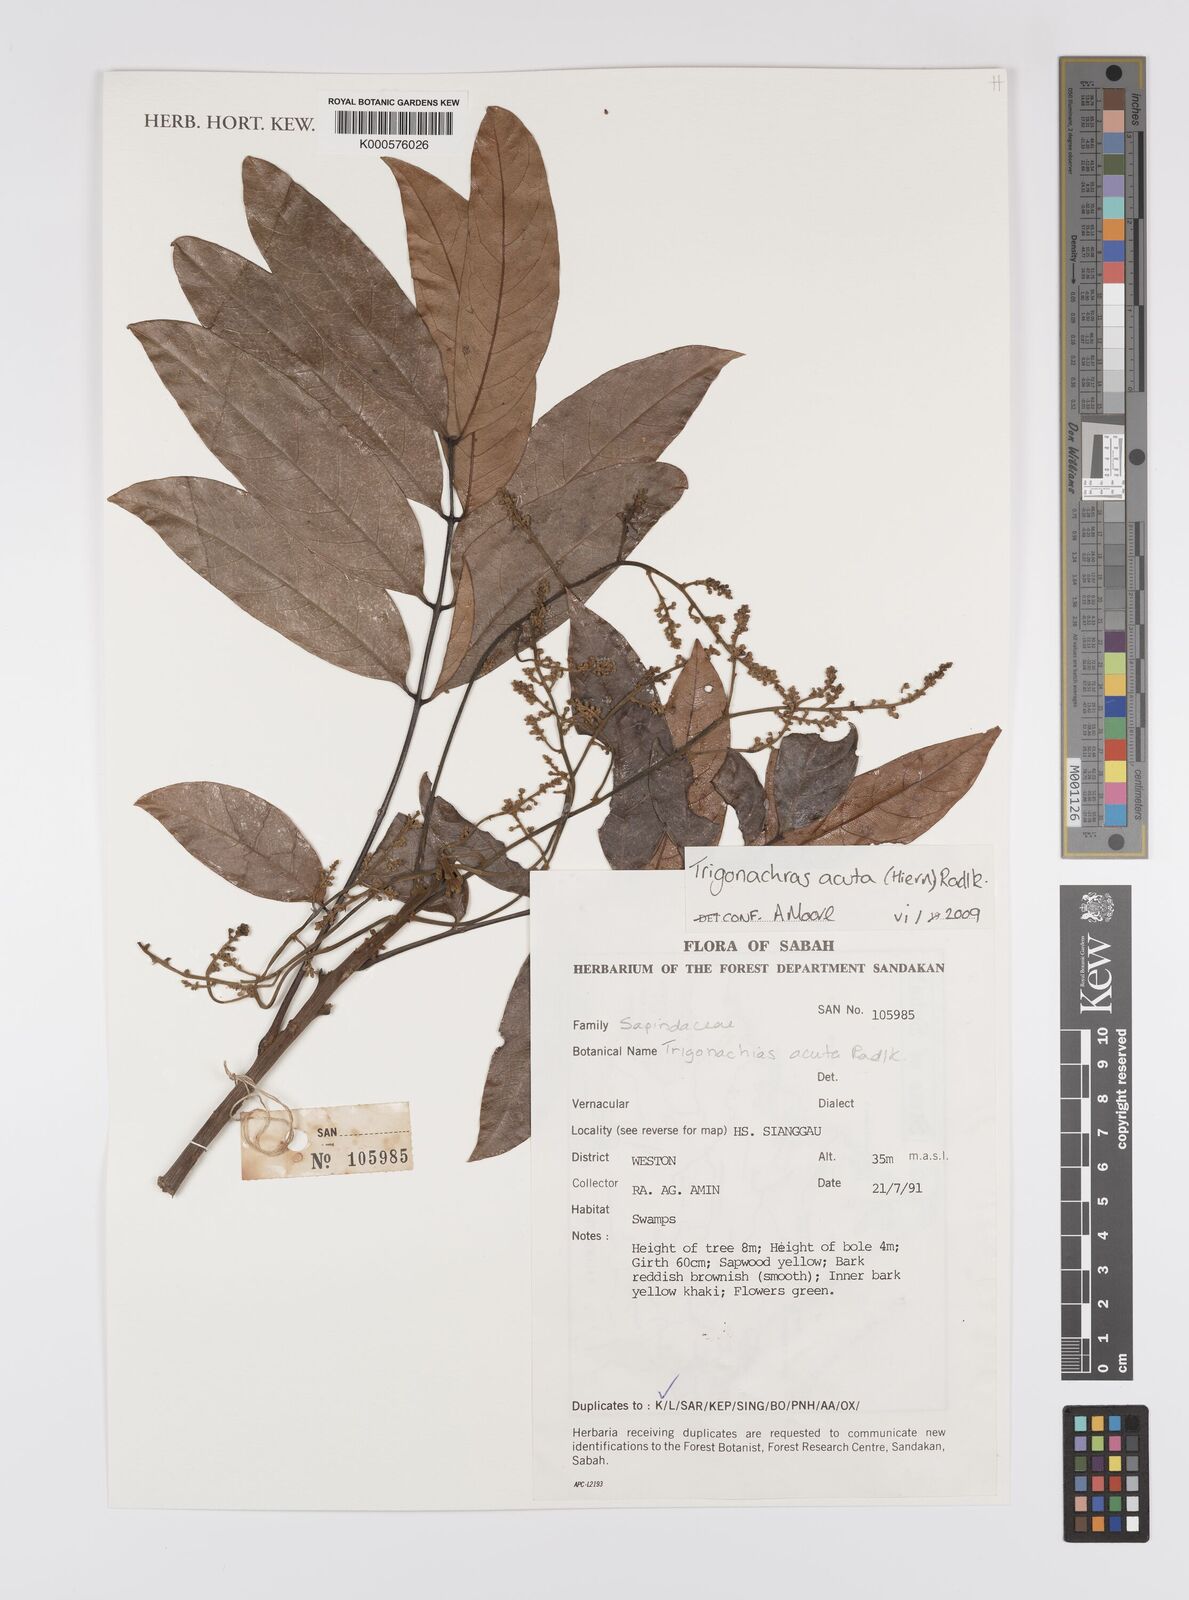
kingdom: Plantae
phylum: Tracheophyta
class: Magnoliopsida
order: Sapindales
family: Sapindaceae
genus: Trigonachras
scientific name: Trigonachras acuta
